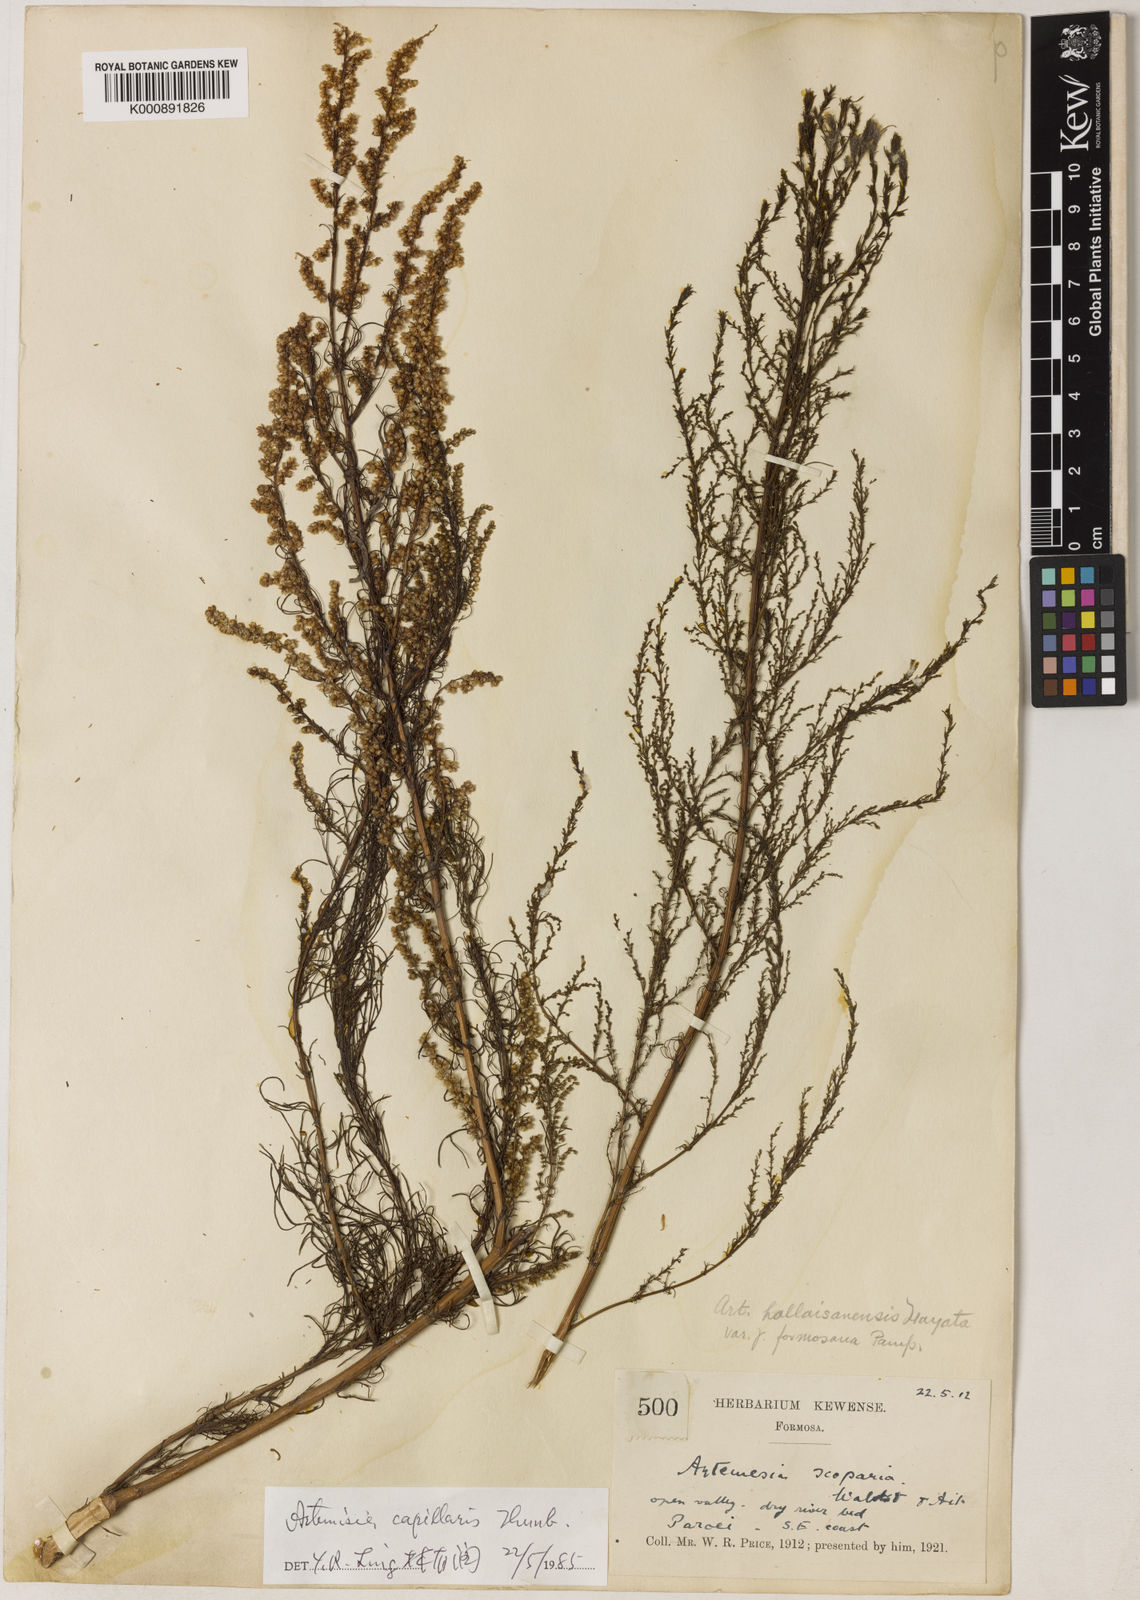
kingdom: Plantae
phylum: Tracheophyta
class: Magnoliopsida
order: Asterales
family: Asteraceae
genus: Artemisia
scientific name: Artemisia capillaris
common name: Yin-chen wormwood
